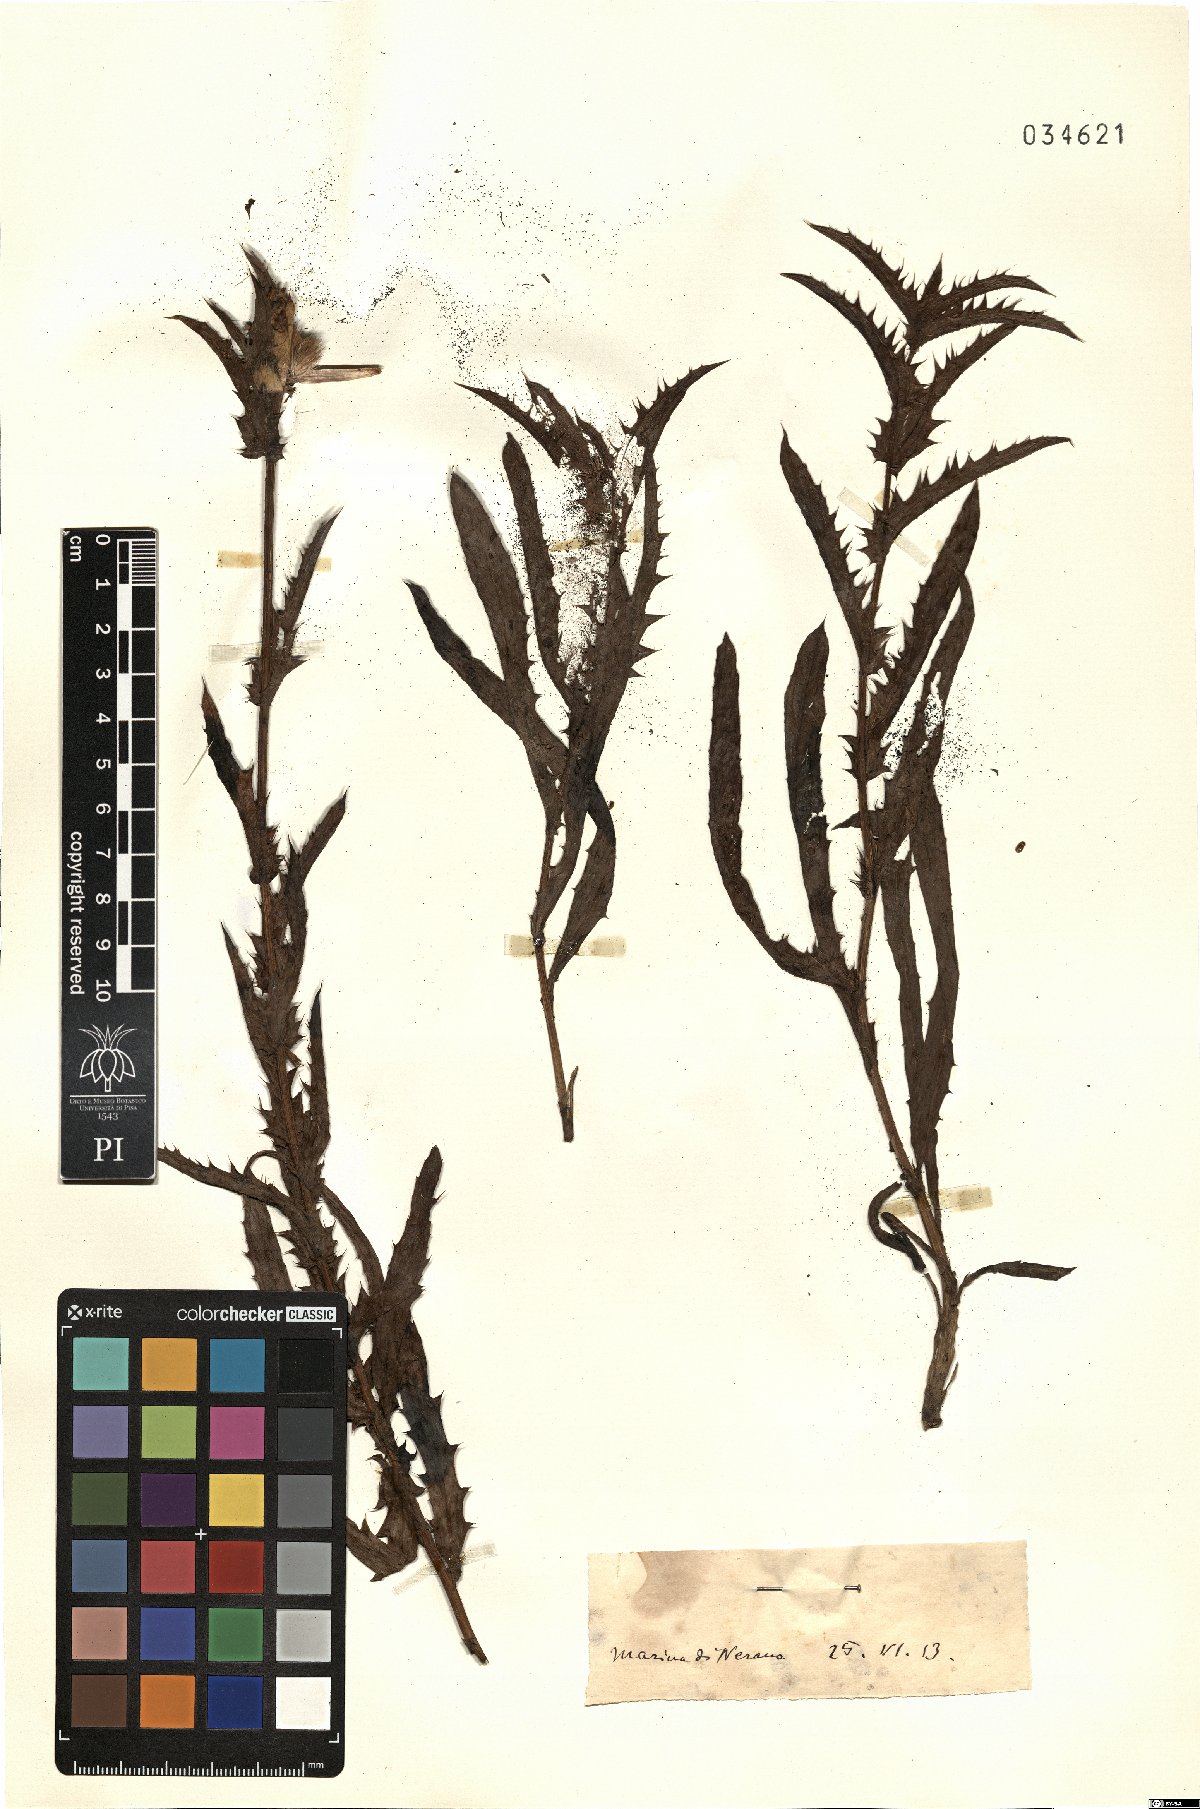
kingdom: Plantae
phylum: Tracheophyta
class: Magnoliopsida
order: Asterales
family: Asteraceae
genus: Carthamus
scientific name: Carthamus
